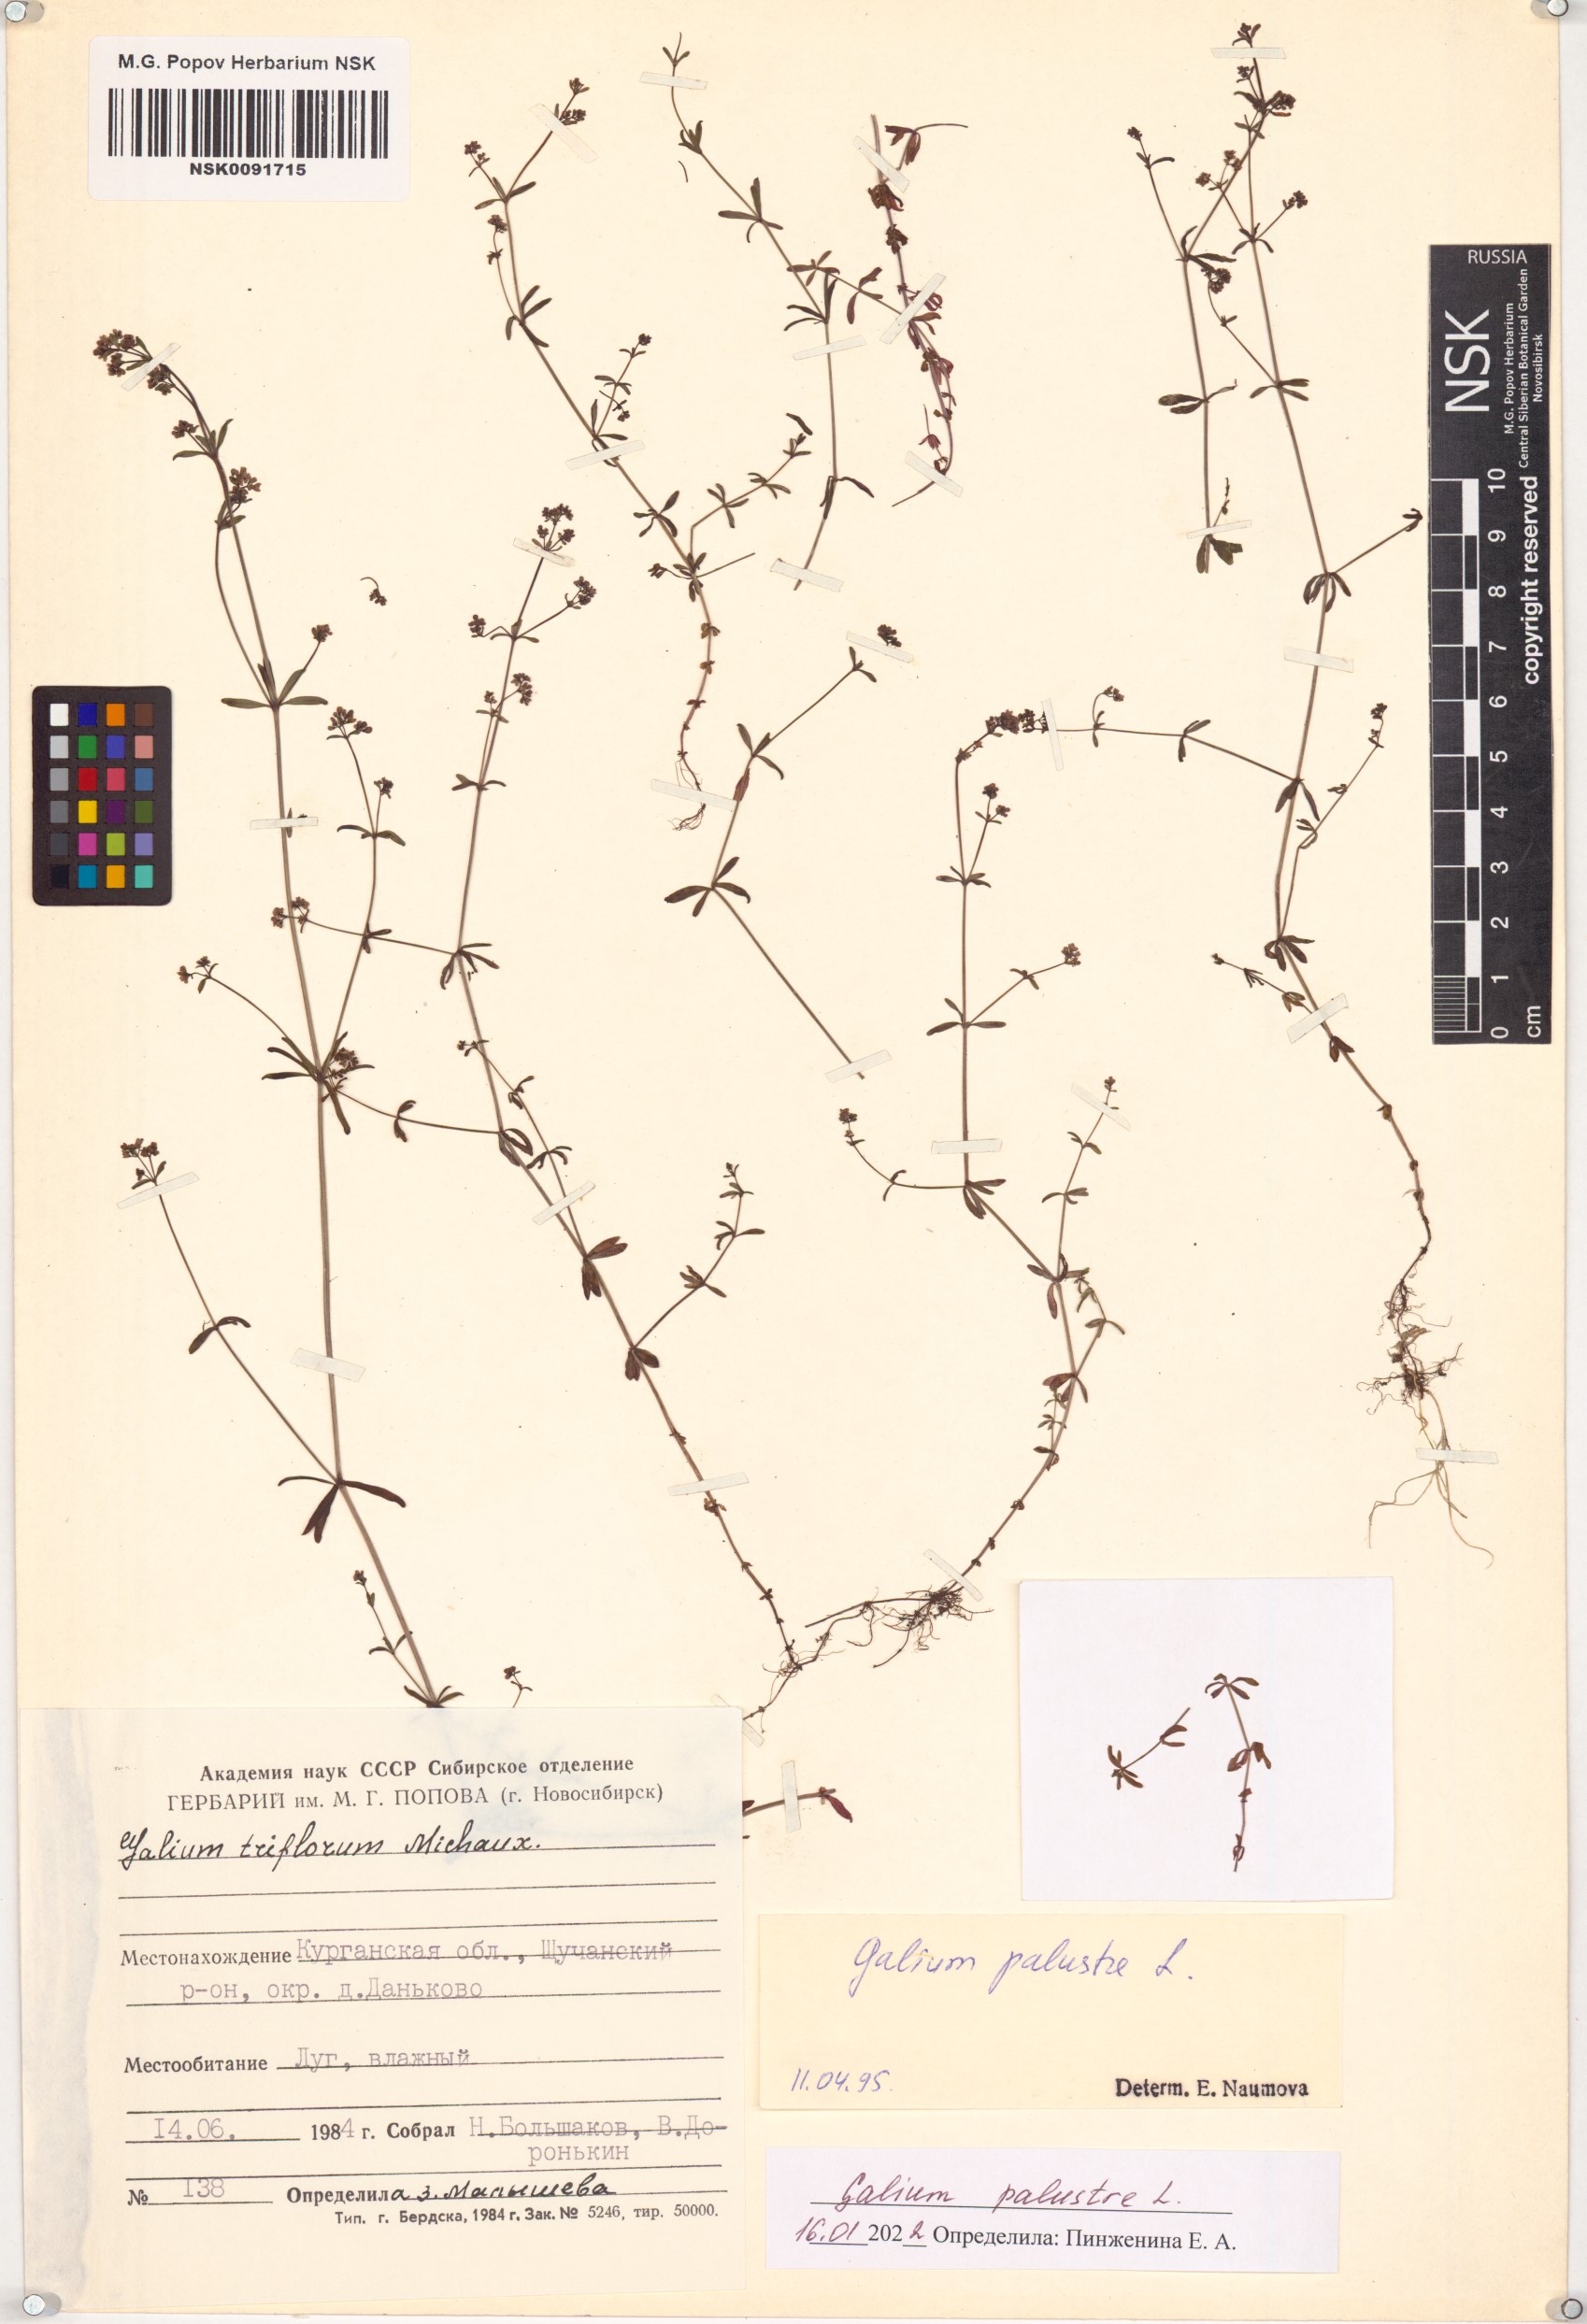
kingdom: Plantae
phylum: Tracheophyta
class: Magnoliopsida
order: Gentianales
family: Rubiaceae
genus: Galium
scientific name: Galium palustre
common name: Common marsh-bedstraw
